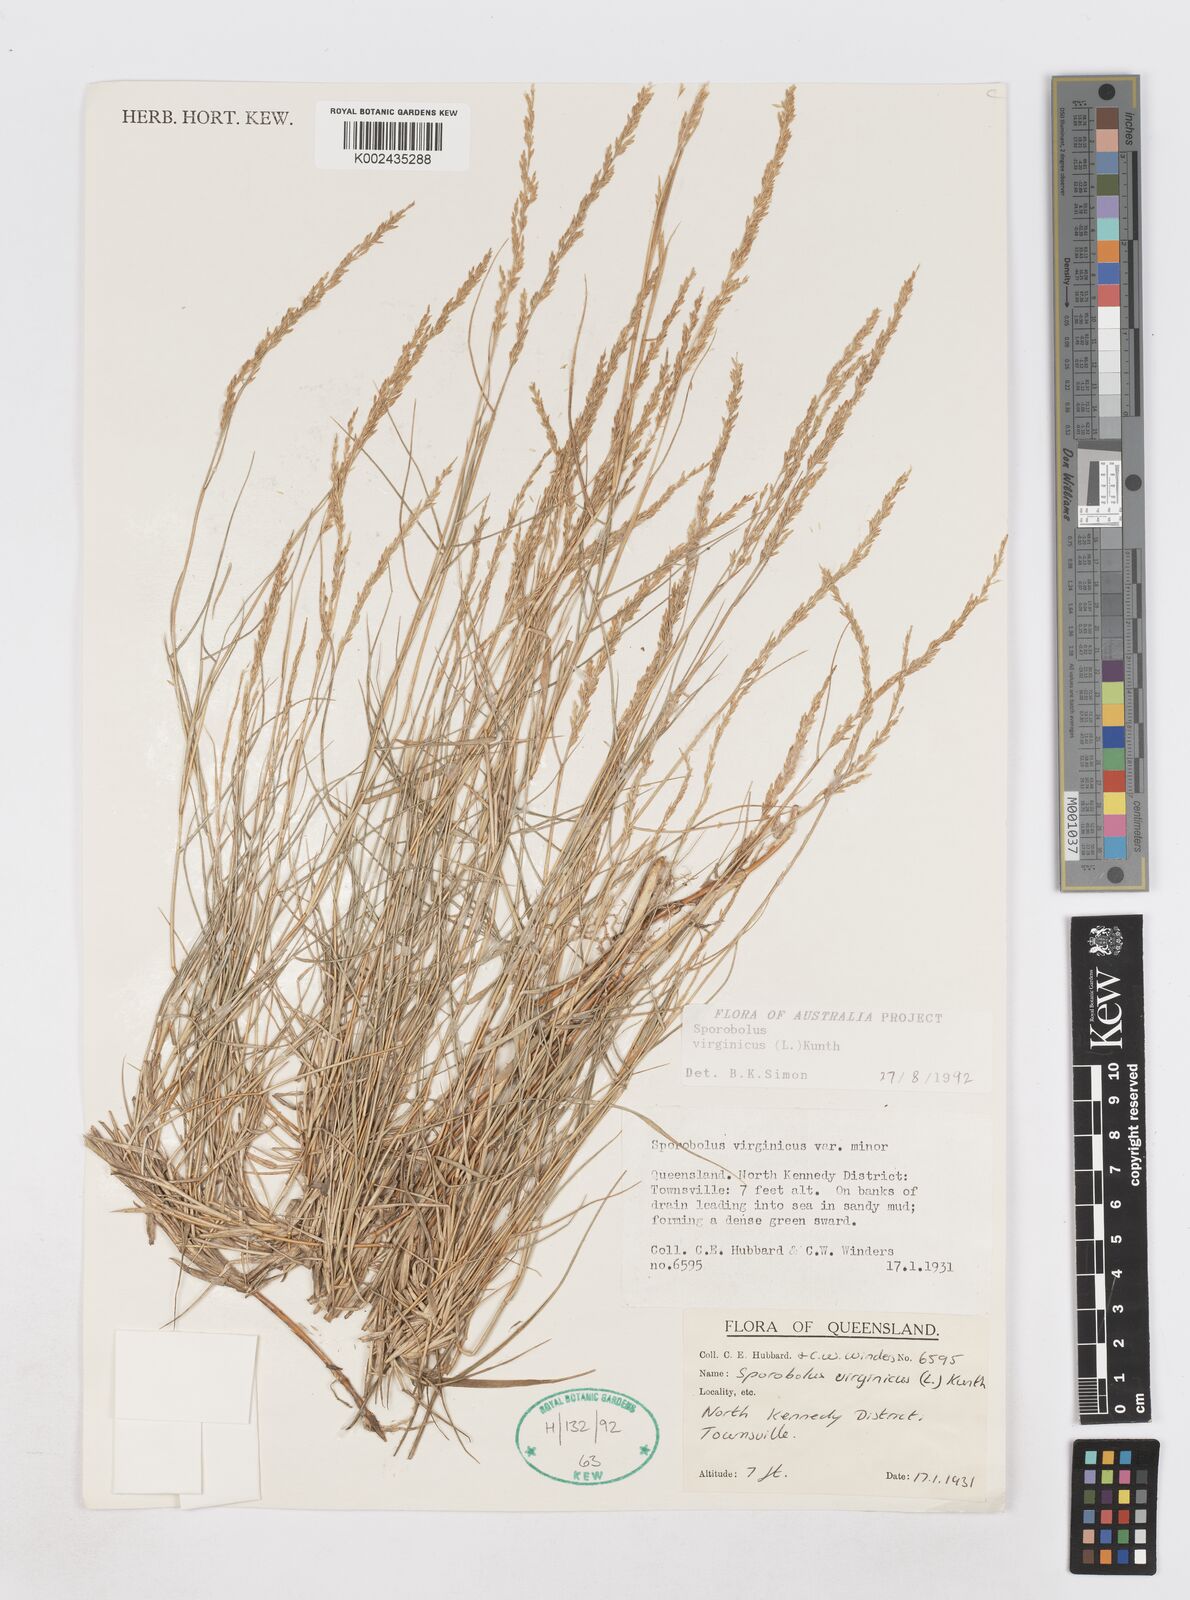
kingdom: Plantae
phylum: Tracheophyta
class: Liliopsida
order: Poales
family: Poaceae
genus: Sporobolus
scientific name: Sporobolus virginicus
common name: Beach dropseed
